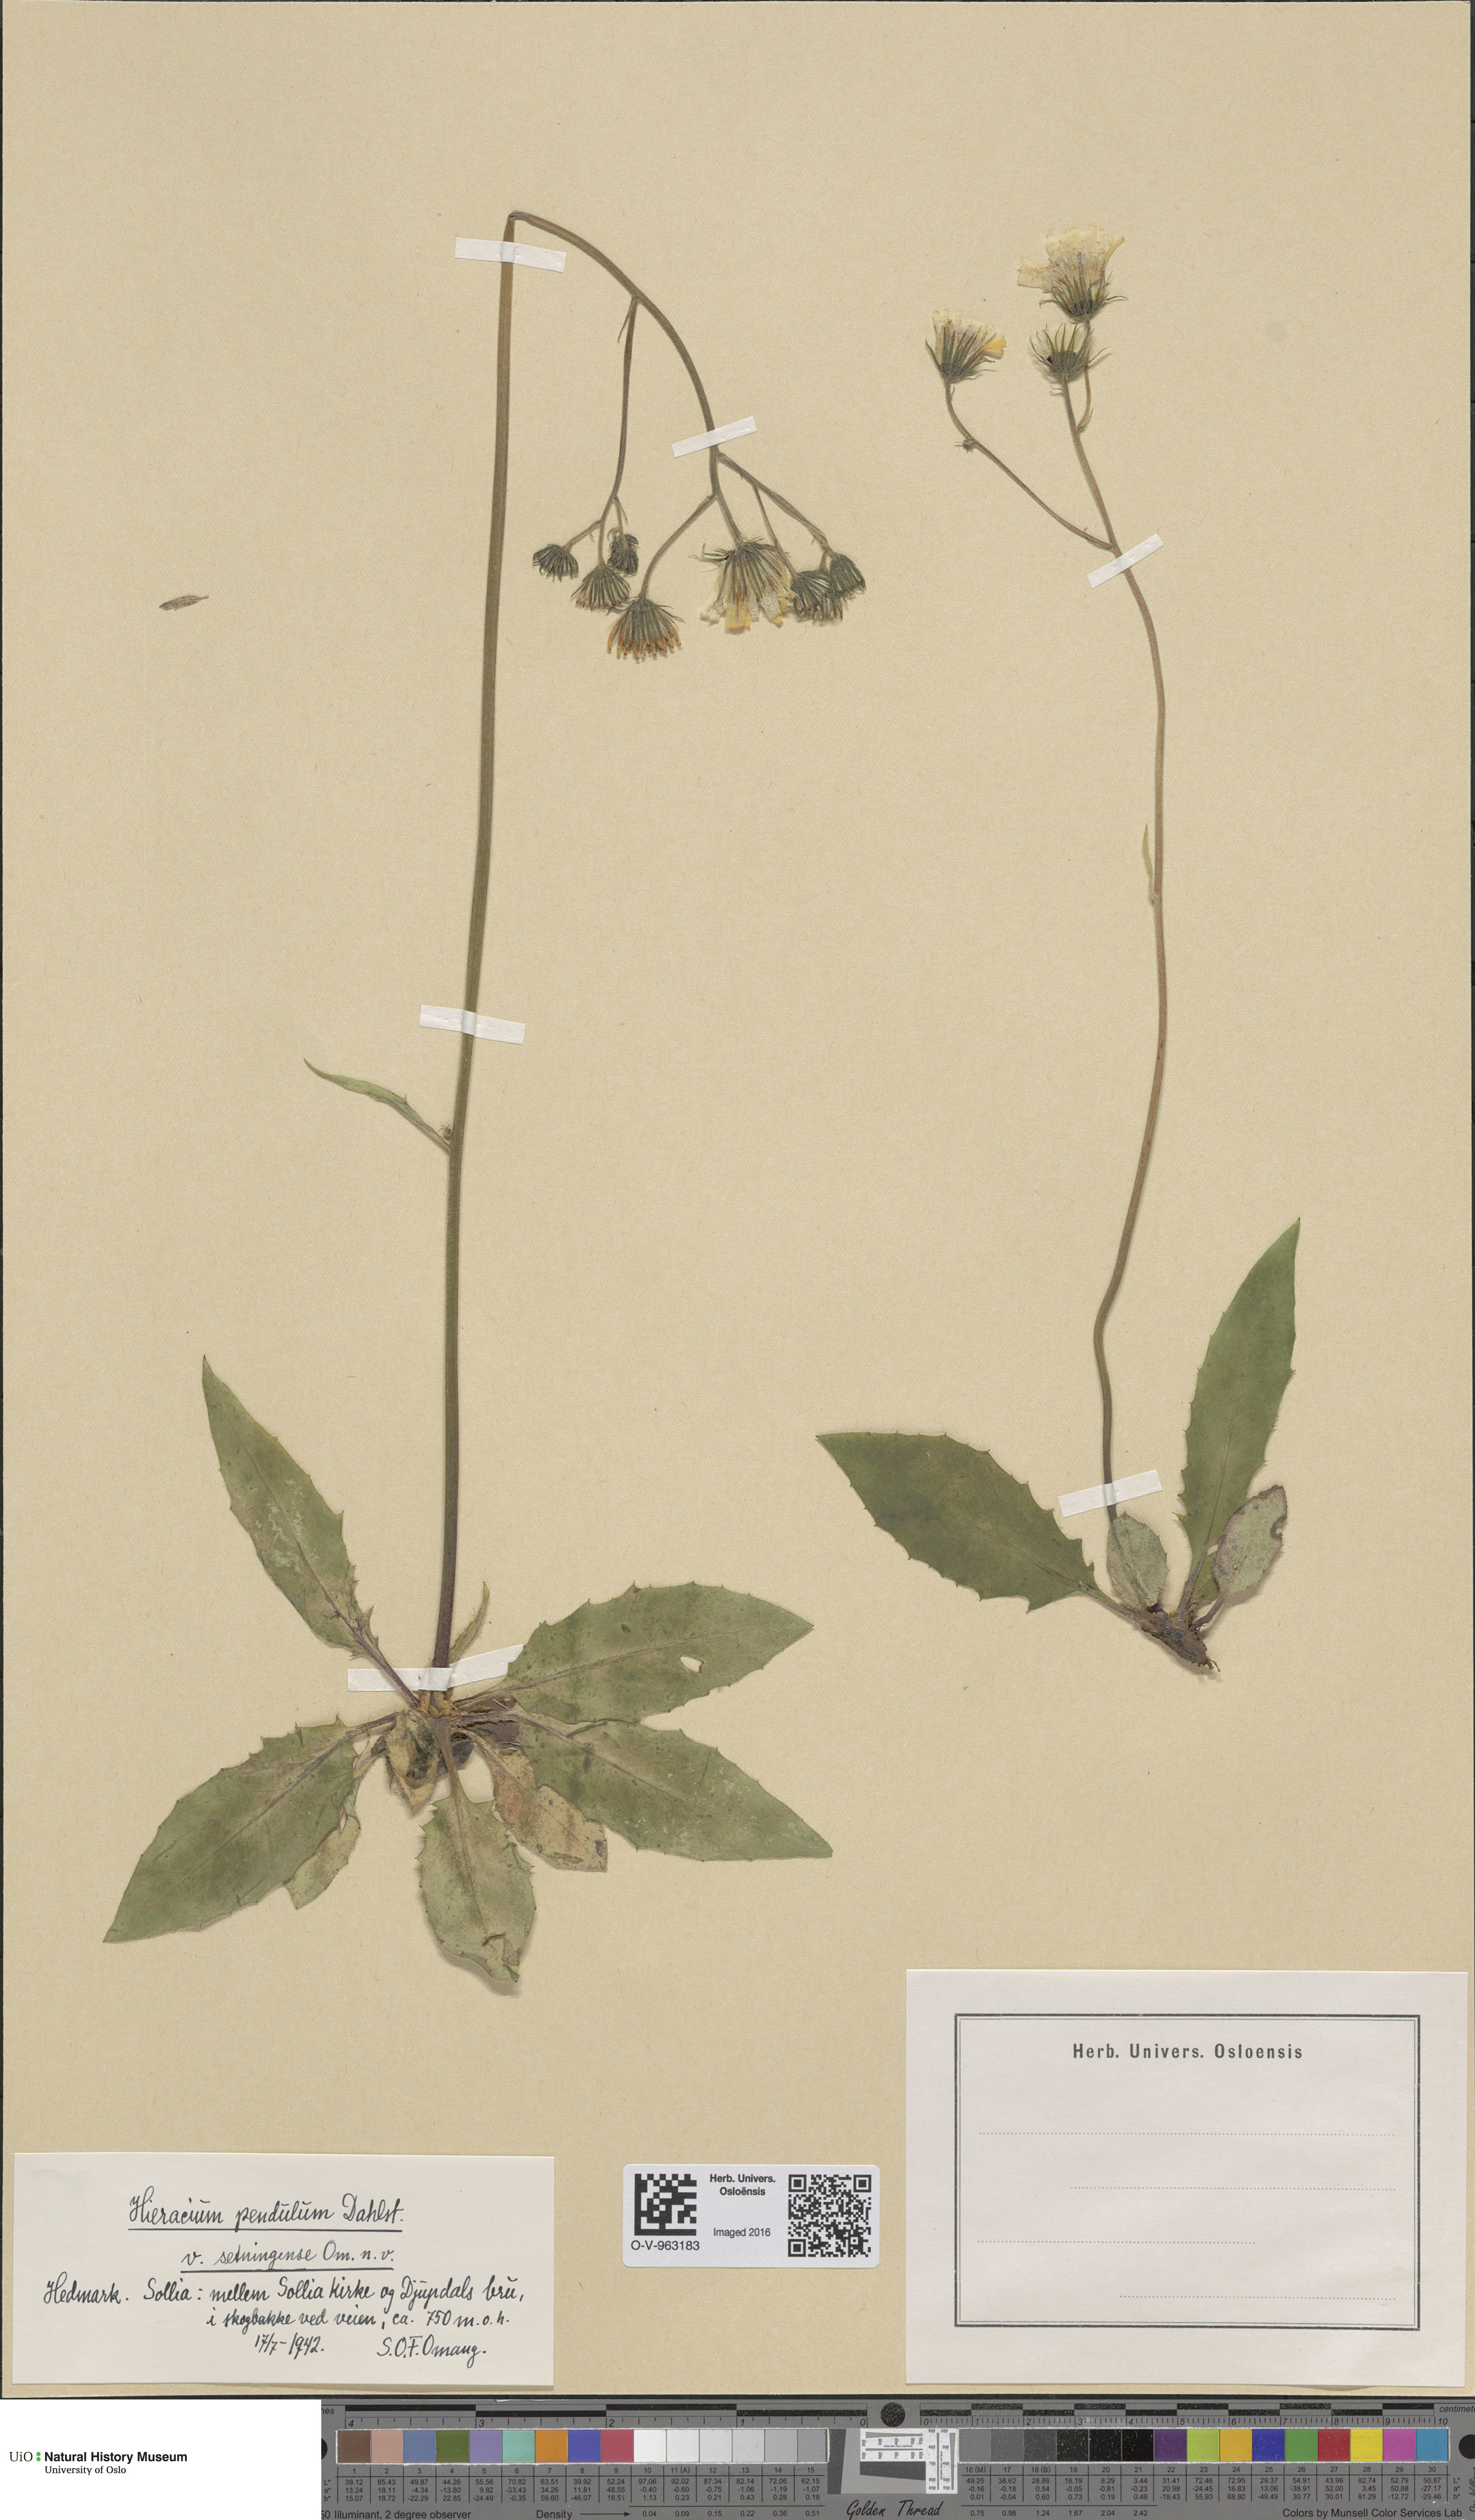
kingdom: Plantae
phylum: Tracheophyta
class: Magnoliopsida
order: Asterales
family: Asteraceae
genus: Hieracium
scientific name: Hieracium pendulum
